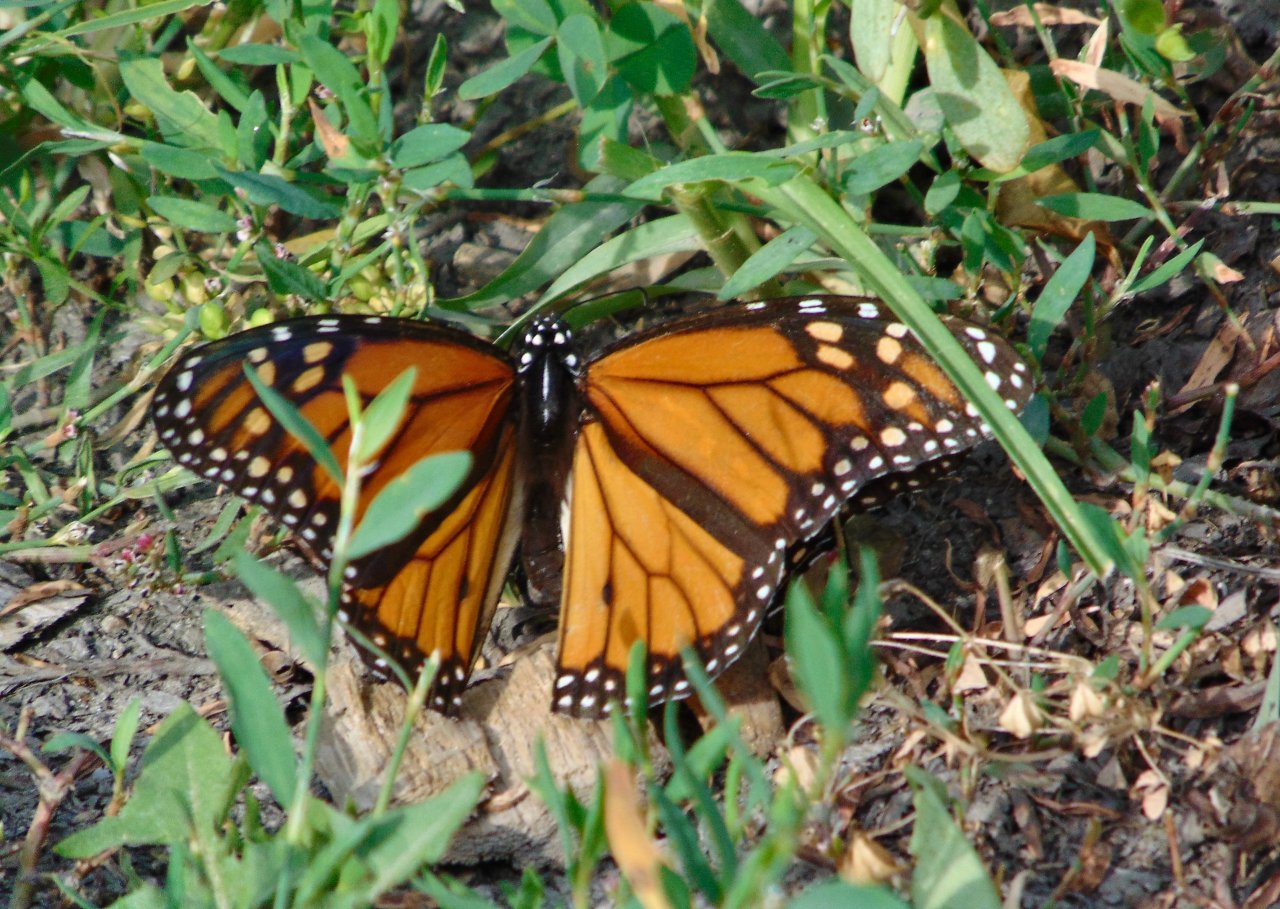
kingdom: Animalia
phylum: Arthropoda
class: Insecta
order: Lepidoptera
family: Nymphalidae
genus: Danaus
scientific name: Danaus plexippus
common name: Monarch
